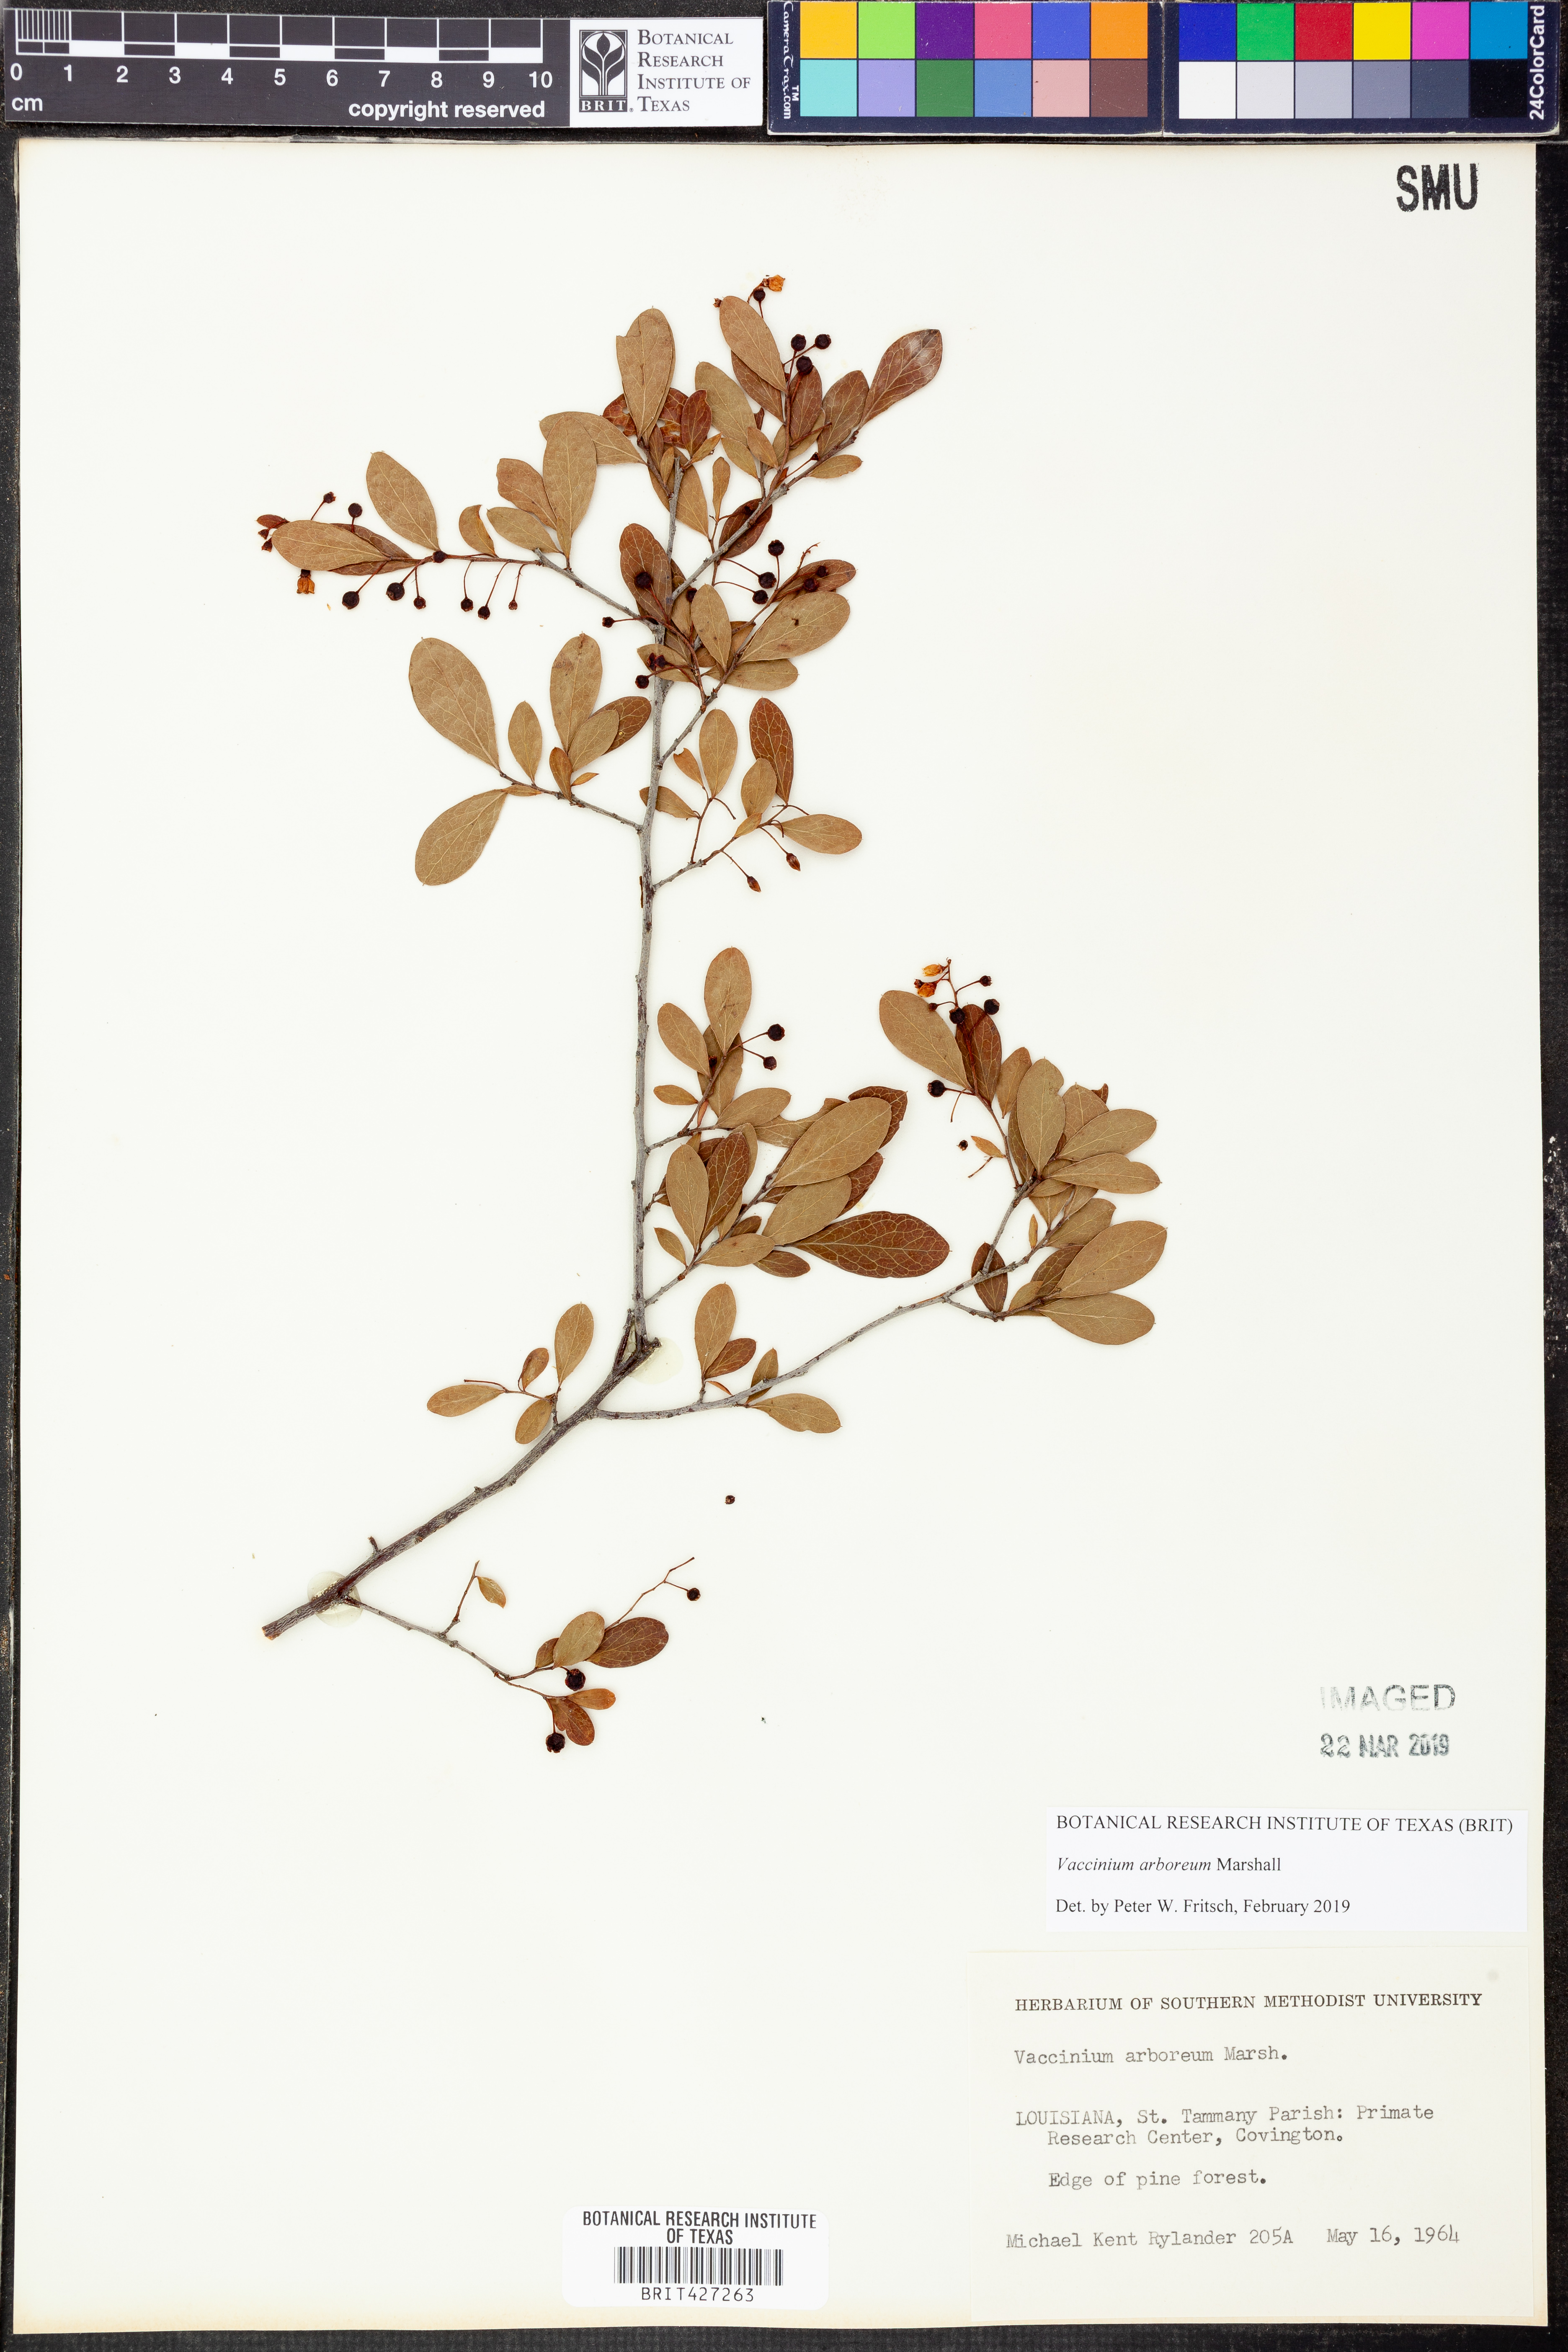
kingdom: Plantae
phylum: Tracheophyta
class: Magnoliopsida
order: Ericales
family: Ericaceae
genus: Vaccinium
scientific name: Vaccinium arboreum
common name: Farkleberry
